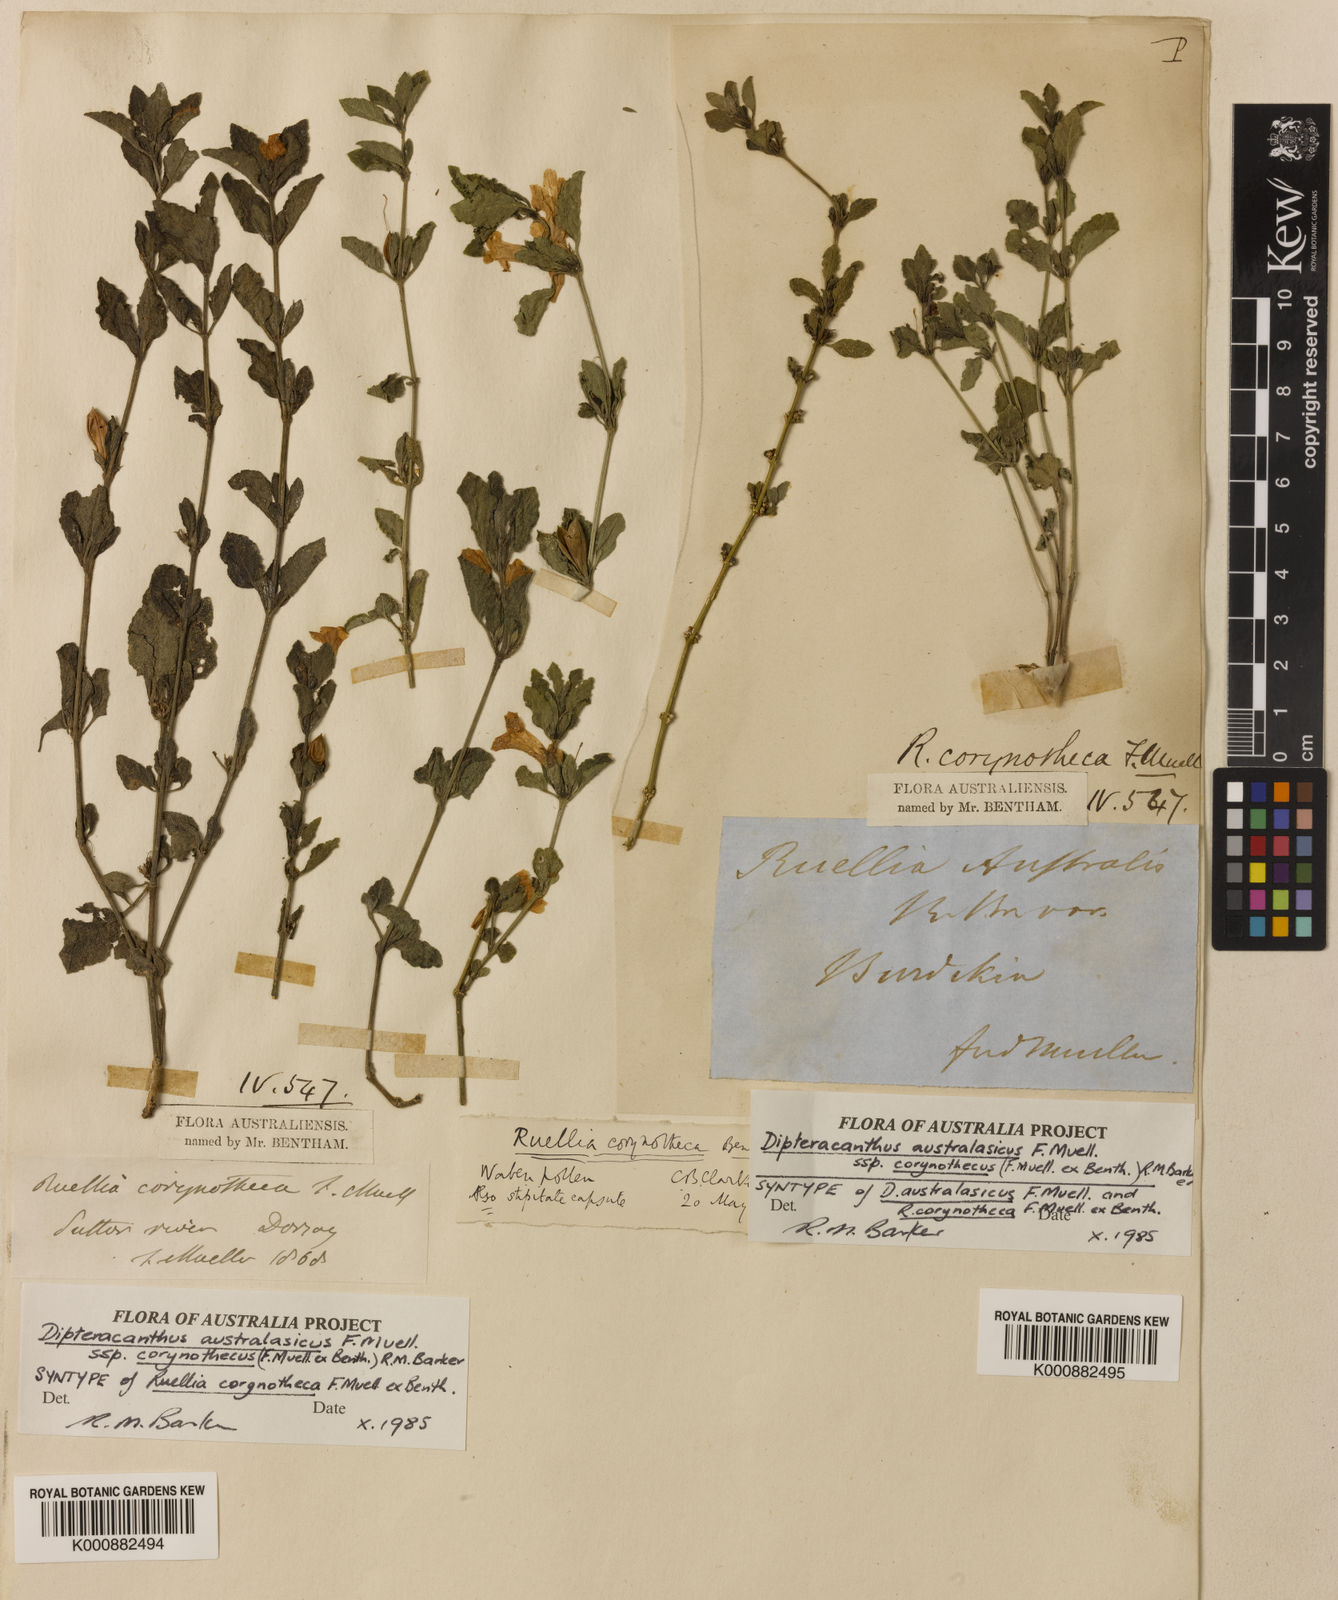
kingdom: Plantae
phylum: Tracheophyta
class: Magnoliopsida
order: Lamiales
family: Acanthaceae
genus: Ruellia
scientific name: Ruellia corynotheca
